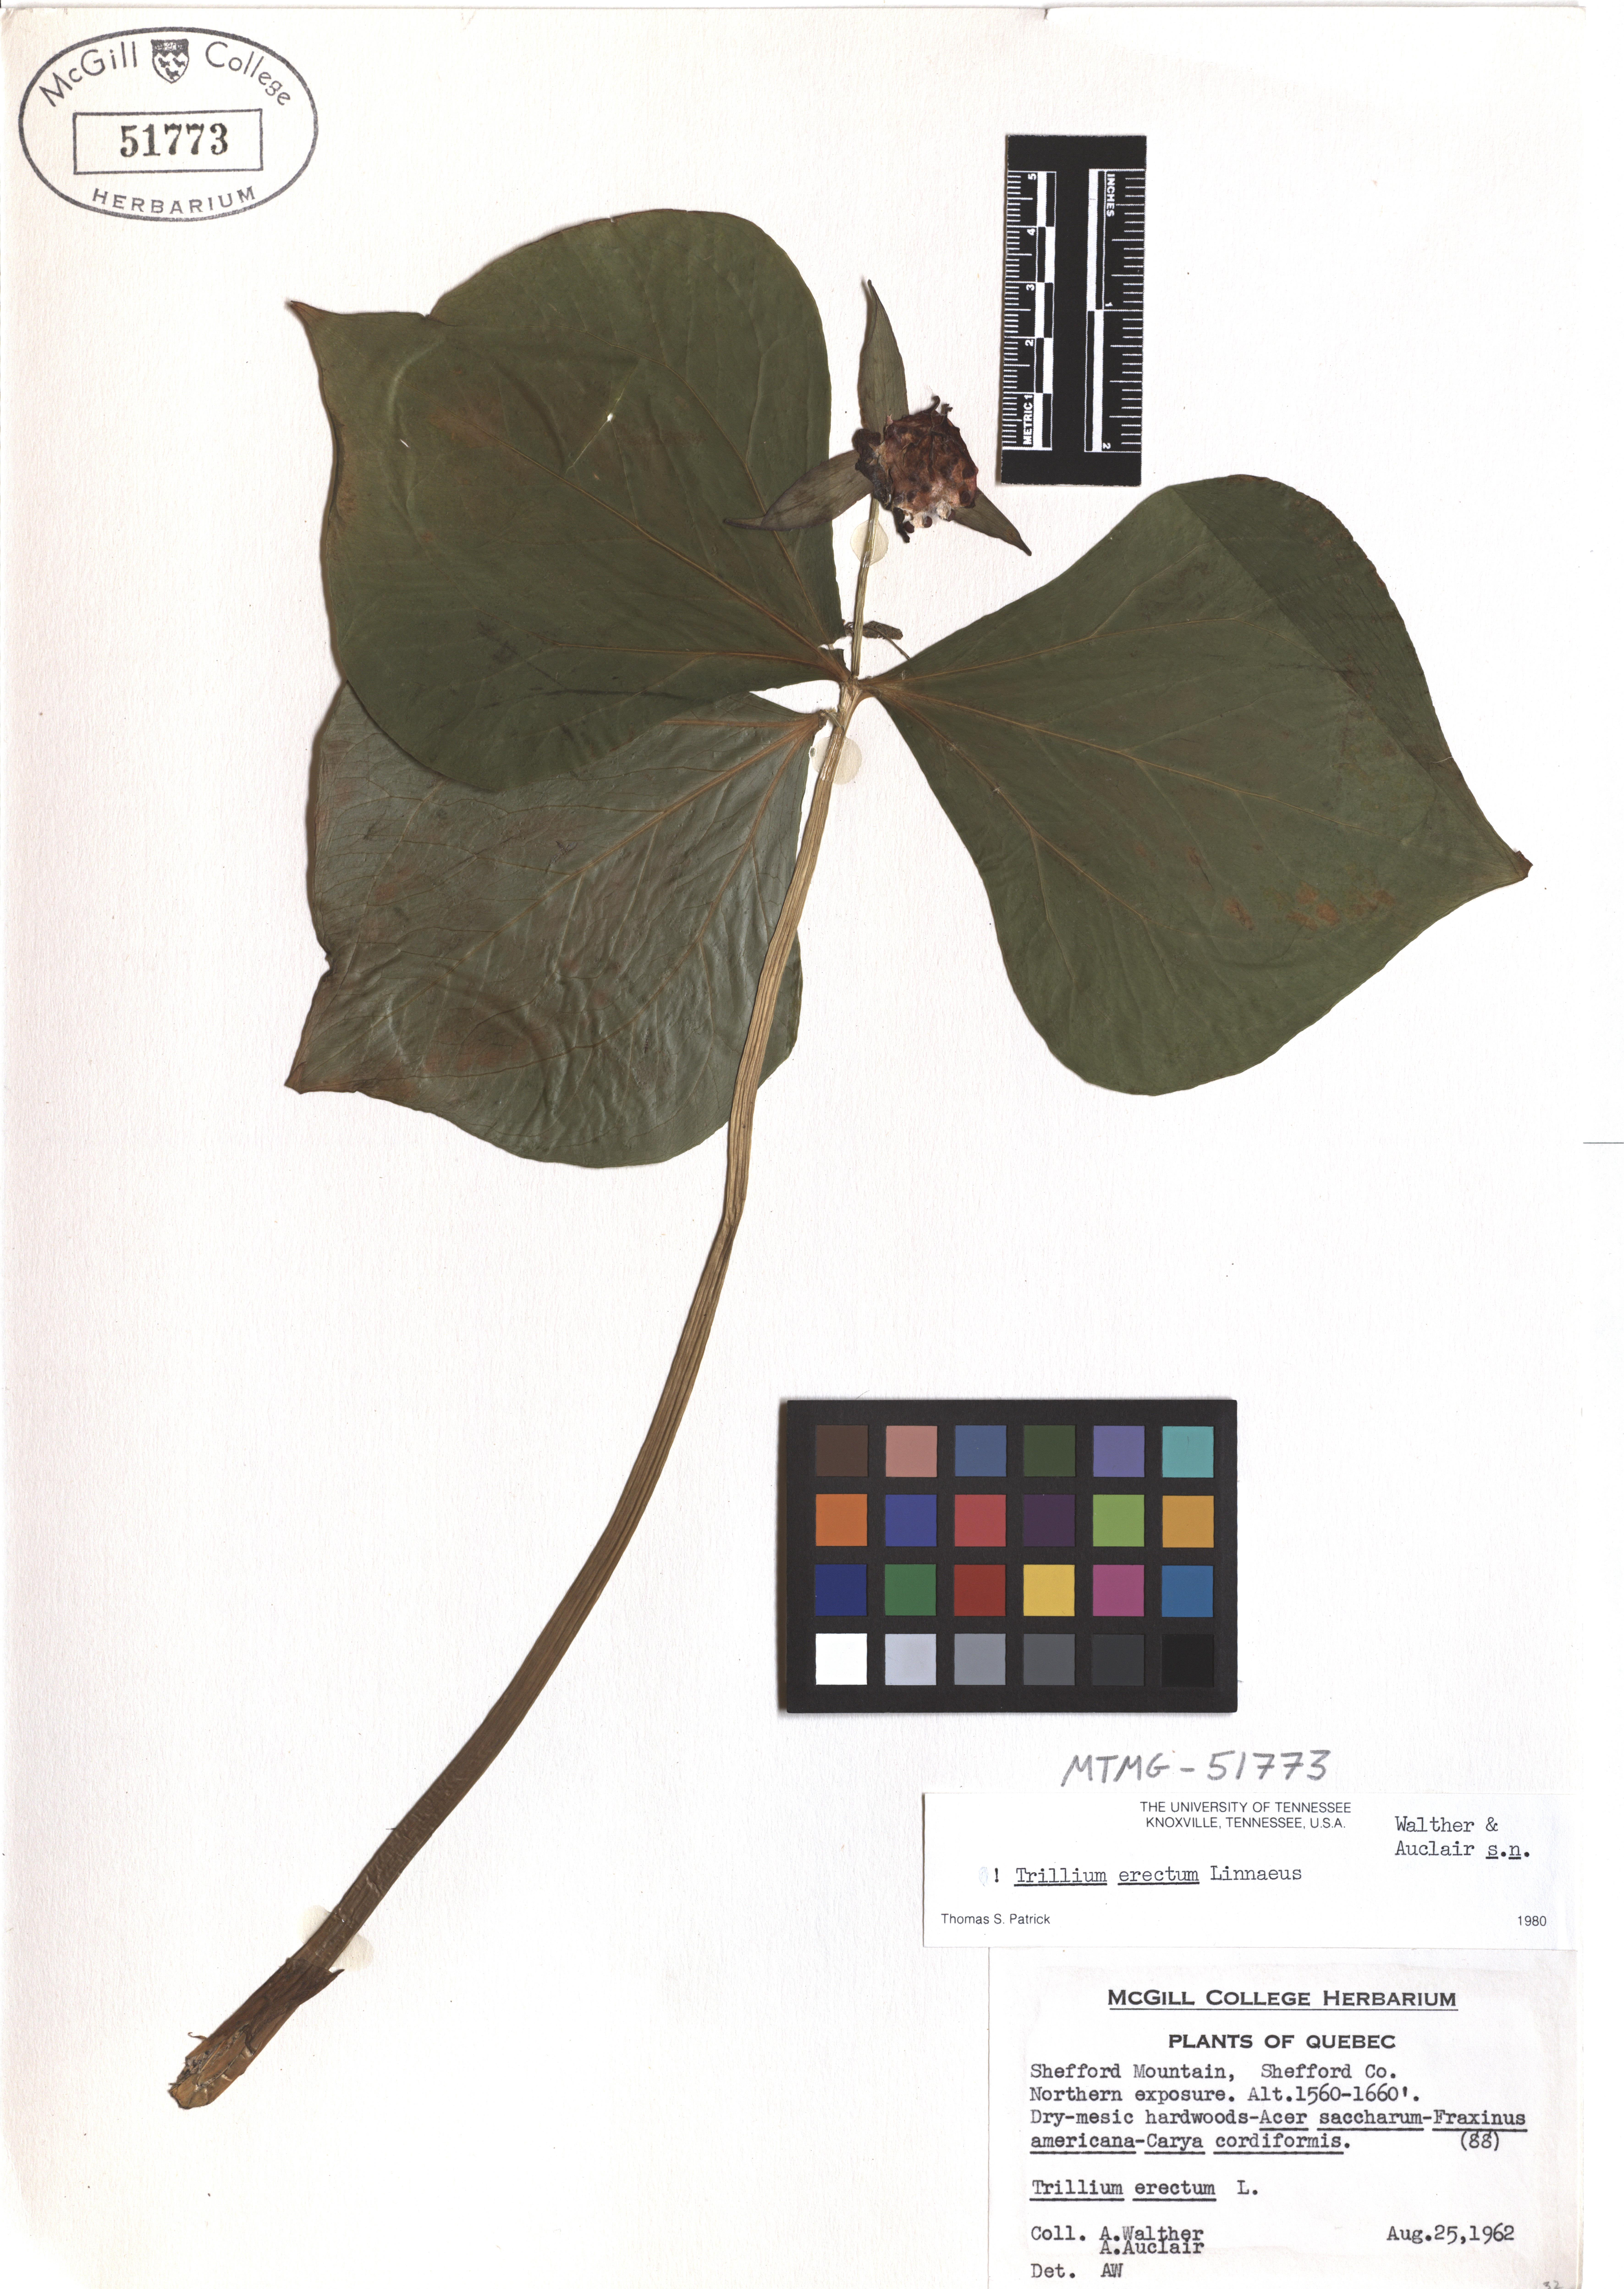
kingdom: Plantae
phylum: Tracheophyta
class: Liliopsida
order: Liliales
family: Melanthiaceae
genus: Trillium
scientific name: Trillium erectum
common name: Purple trillium
